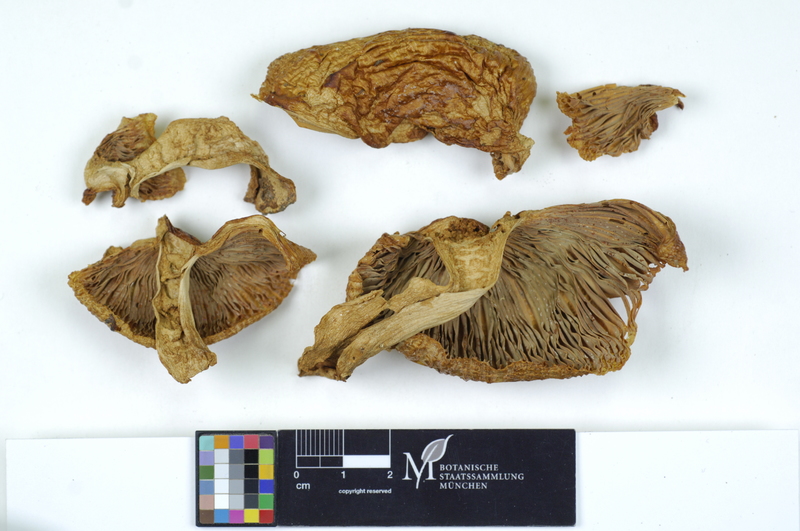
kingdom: Fungi
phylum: Basidiomycota
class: Agaricomycetes
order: Russulales
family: Russulaceae
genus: Russula
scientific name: Russula illota
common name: Freckled brittlegill
